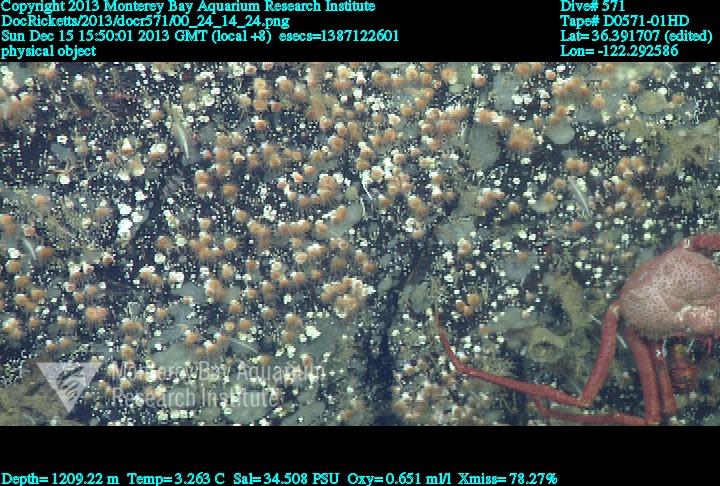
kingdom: Animalia
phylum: Cnidaria
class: Anthozoa
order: Scleractinia
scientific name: Scleractinia
